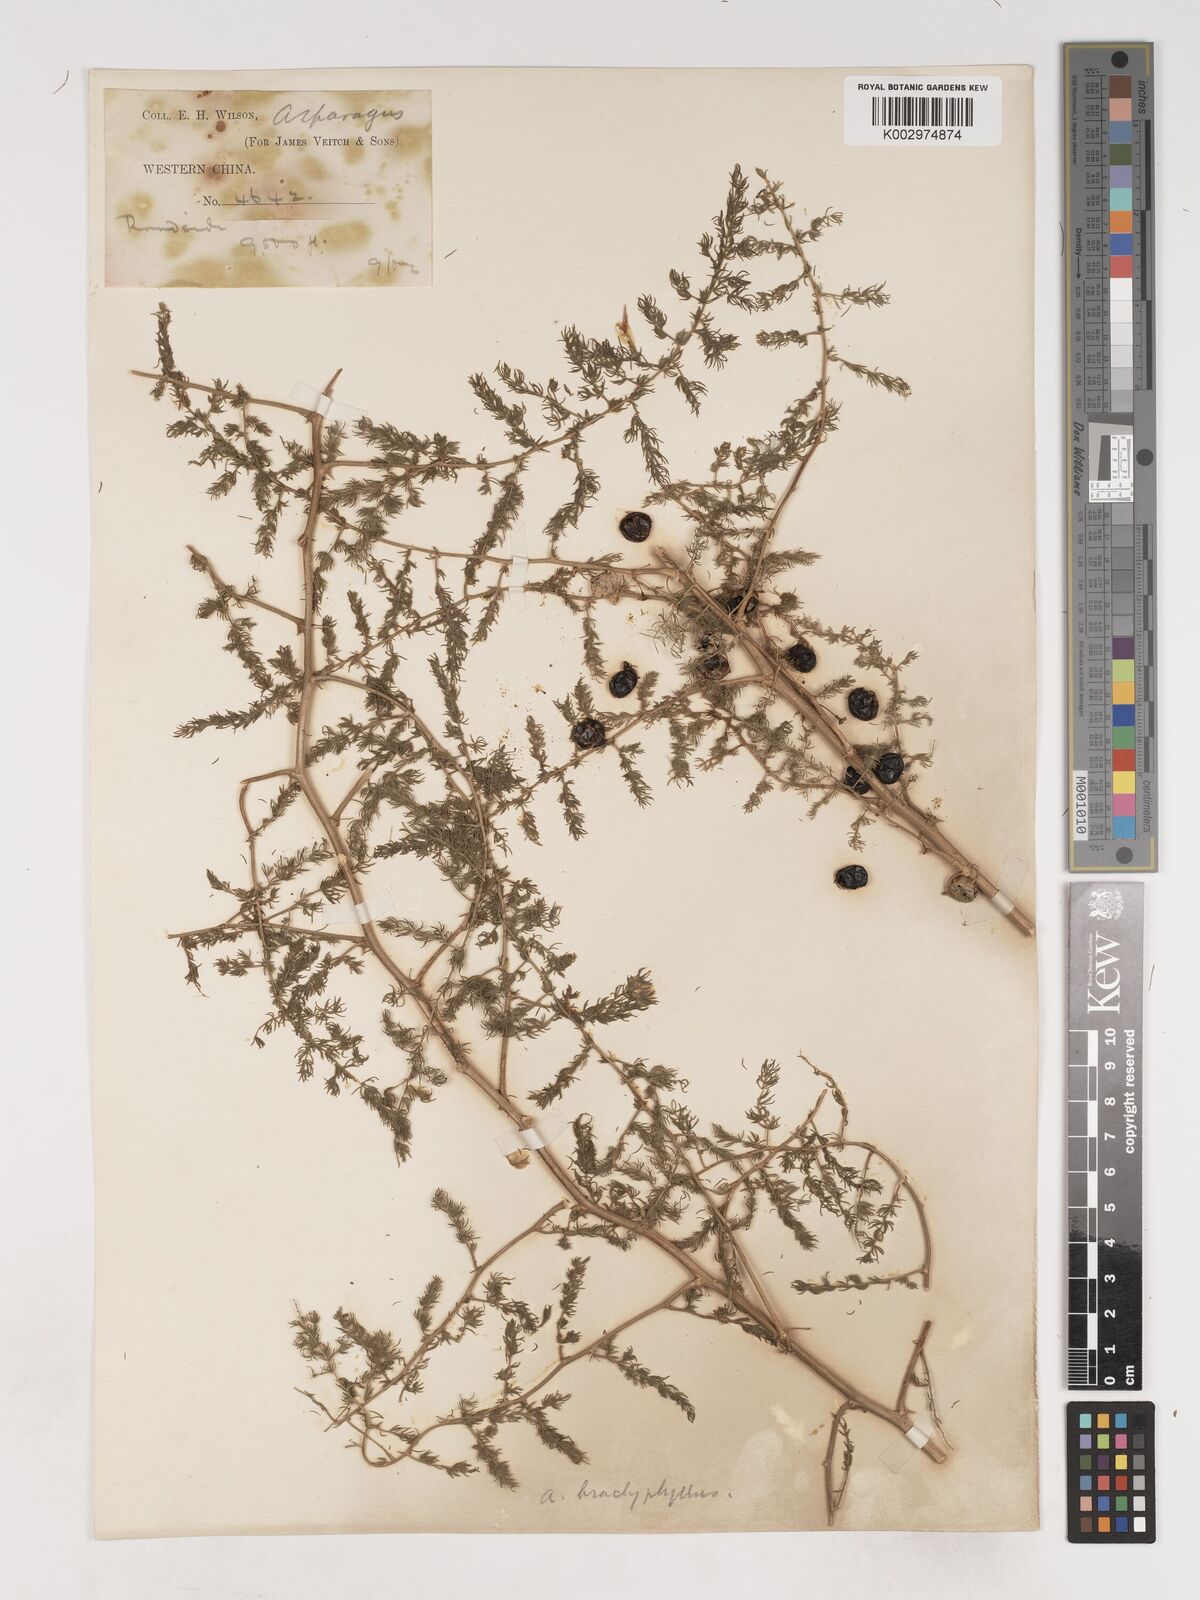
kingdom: Plantae
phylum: Tracheophyta
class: Liliopsida
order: Asparagales
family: Asparagaceae
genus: Asparagus
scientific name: Asparagus trichophyllus
